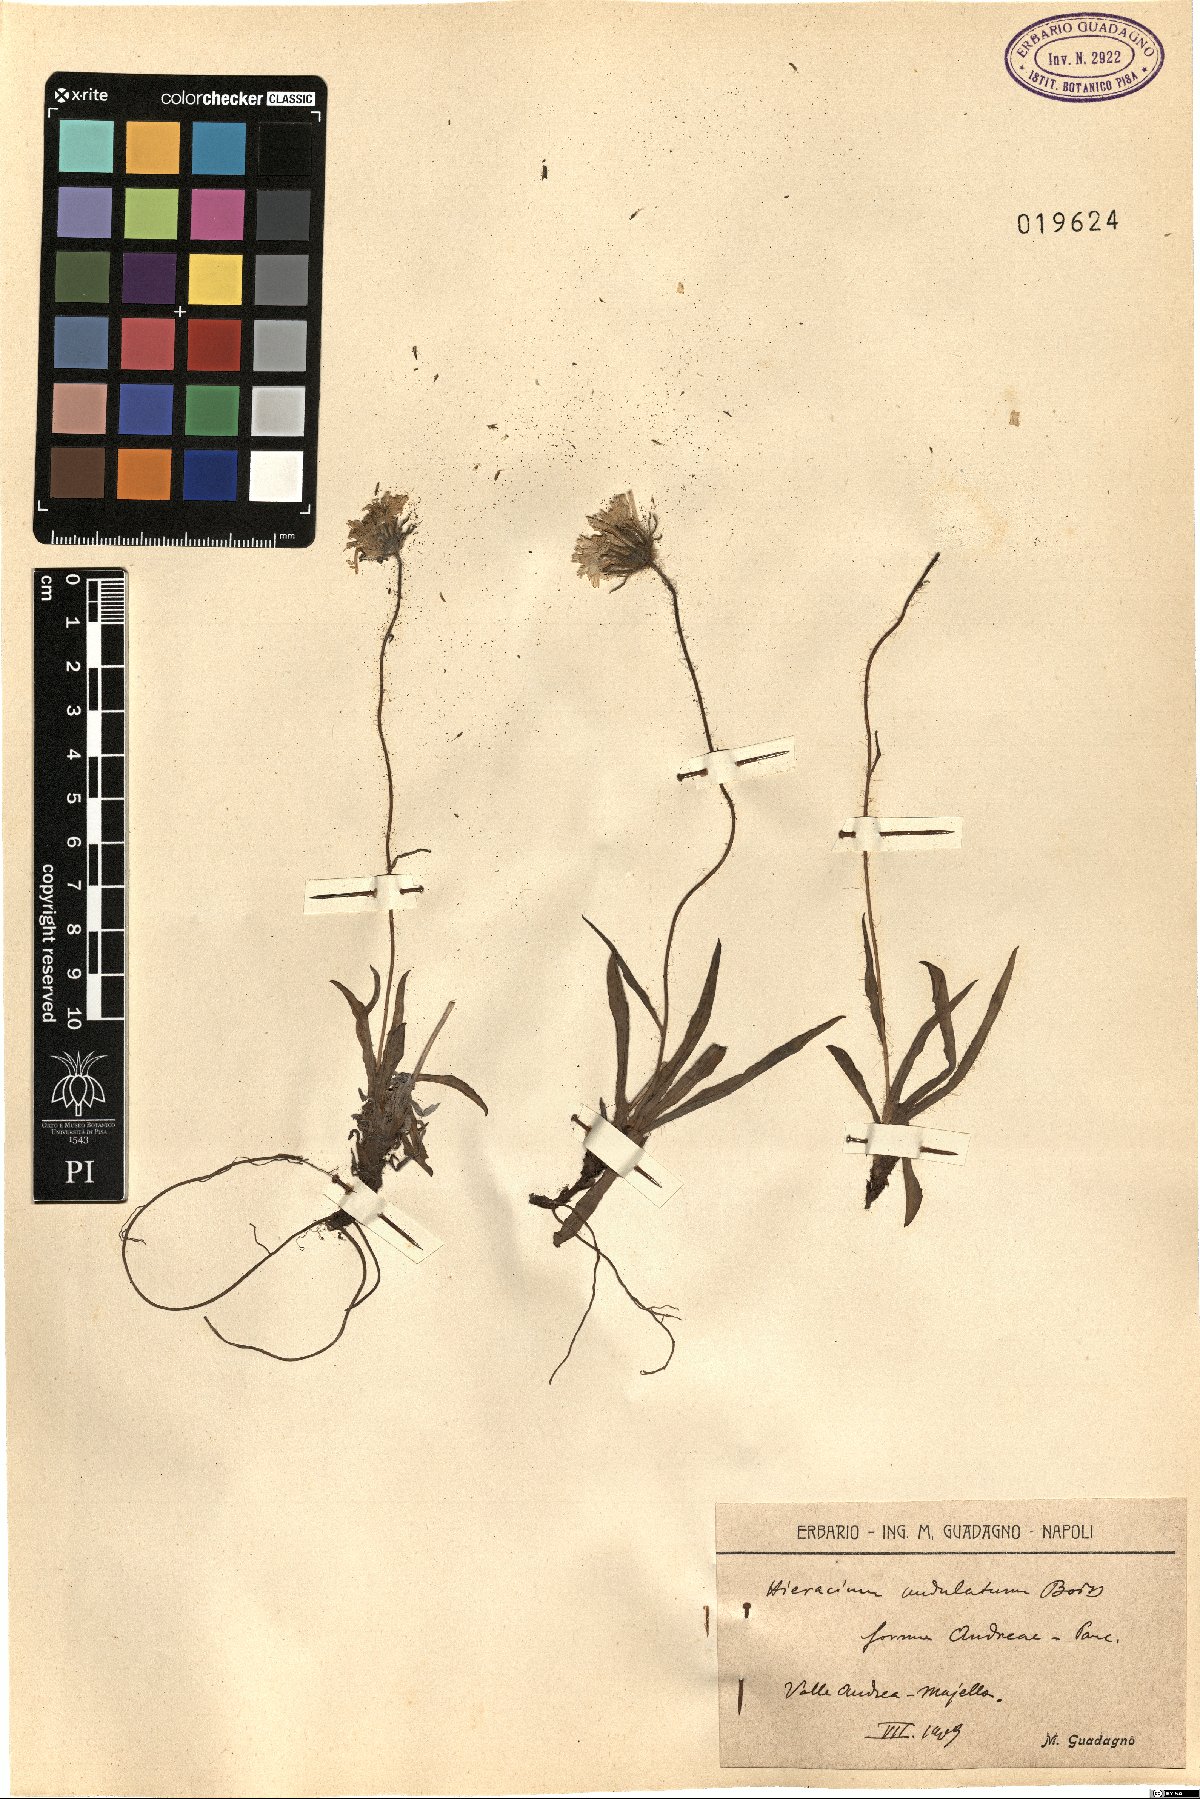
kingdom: Plantae
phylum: Tracheophyta
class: Magnoliopsida
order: Asterales
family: Asteraceae
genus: Hieracium
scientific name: Hieracium naegelianum
